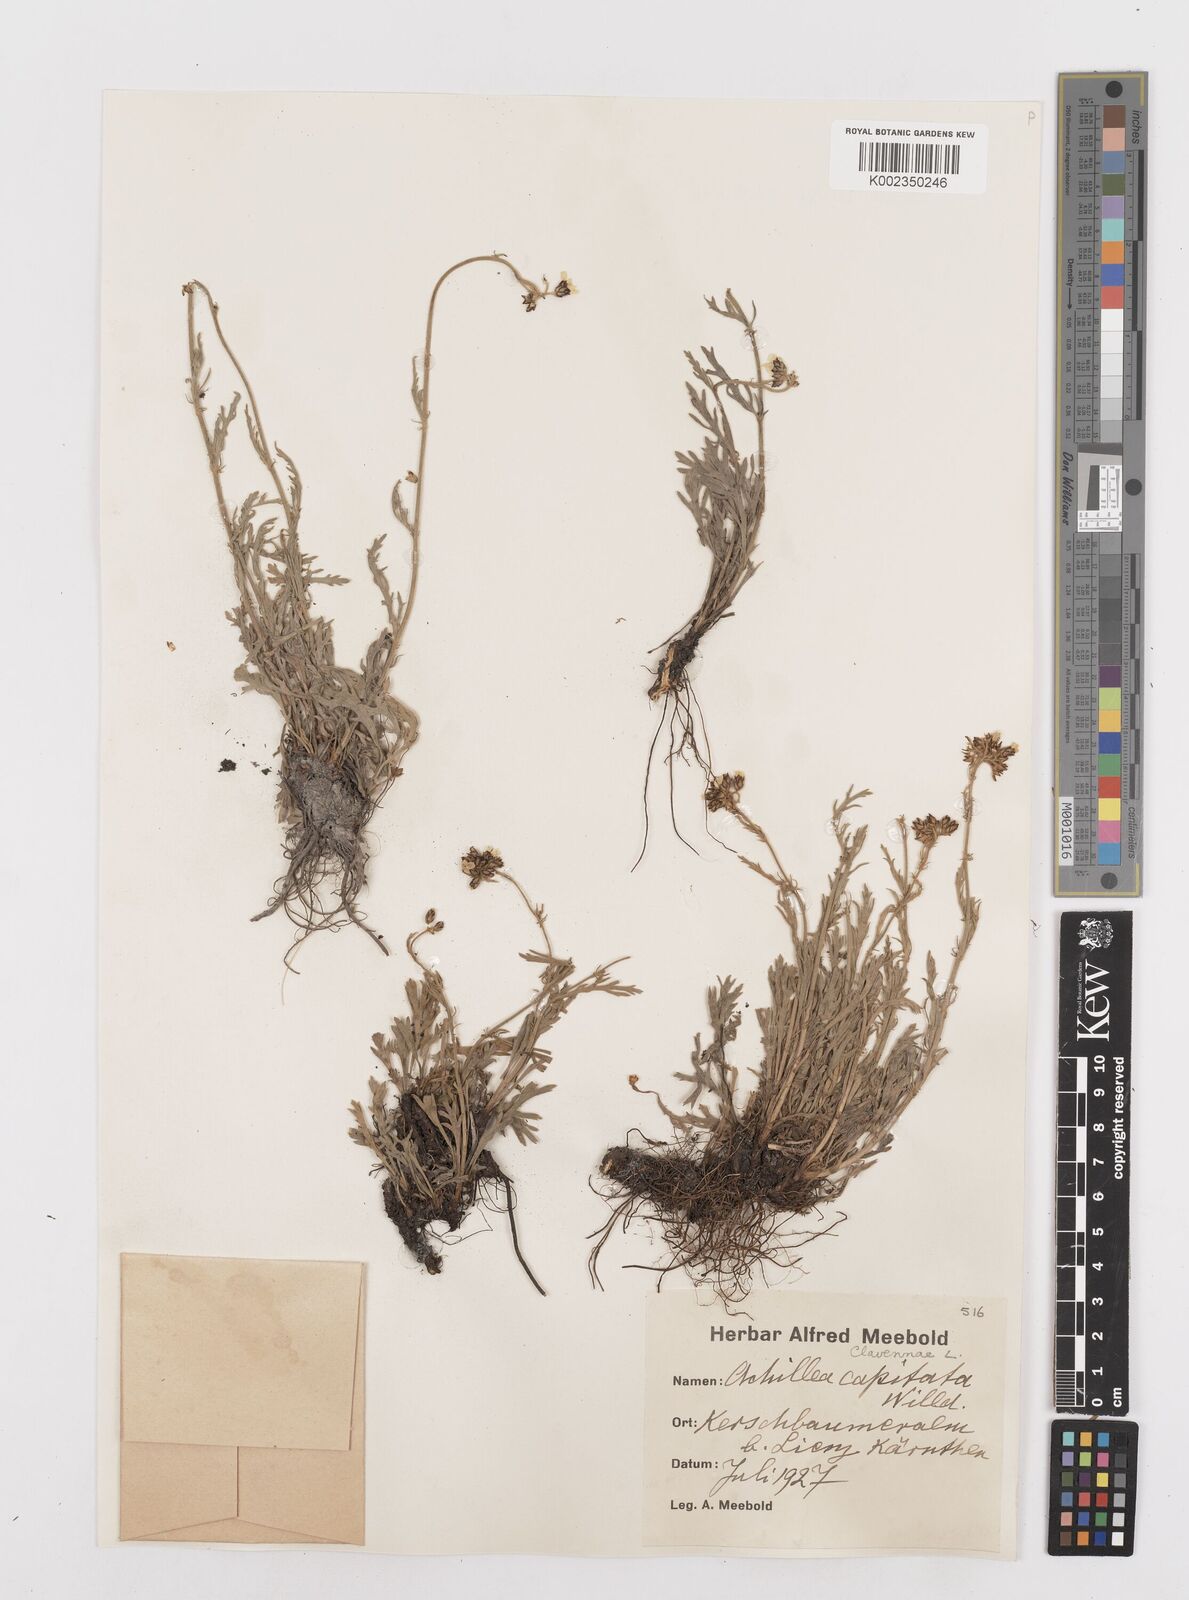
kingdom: Plantae
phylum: Tracheophyta
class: Magnoliopsida
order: Asterales
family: Asteraceae
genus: Achillea
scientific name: Achillea clavennae
